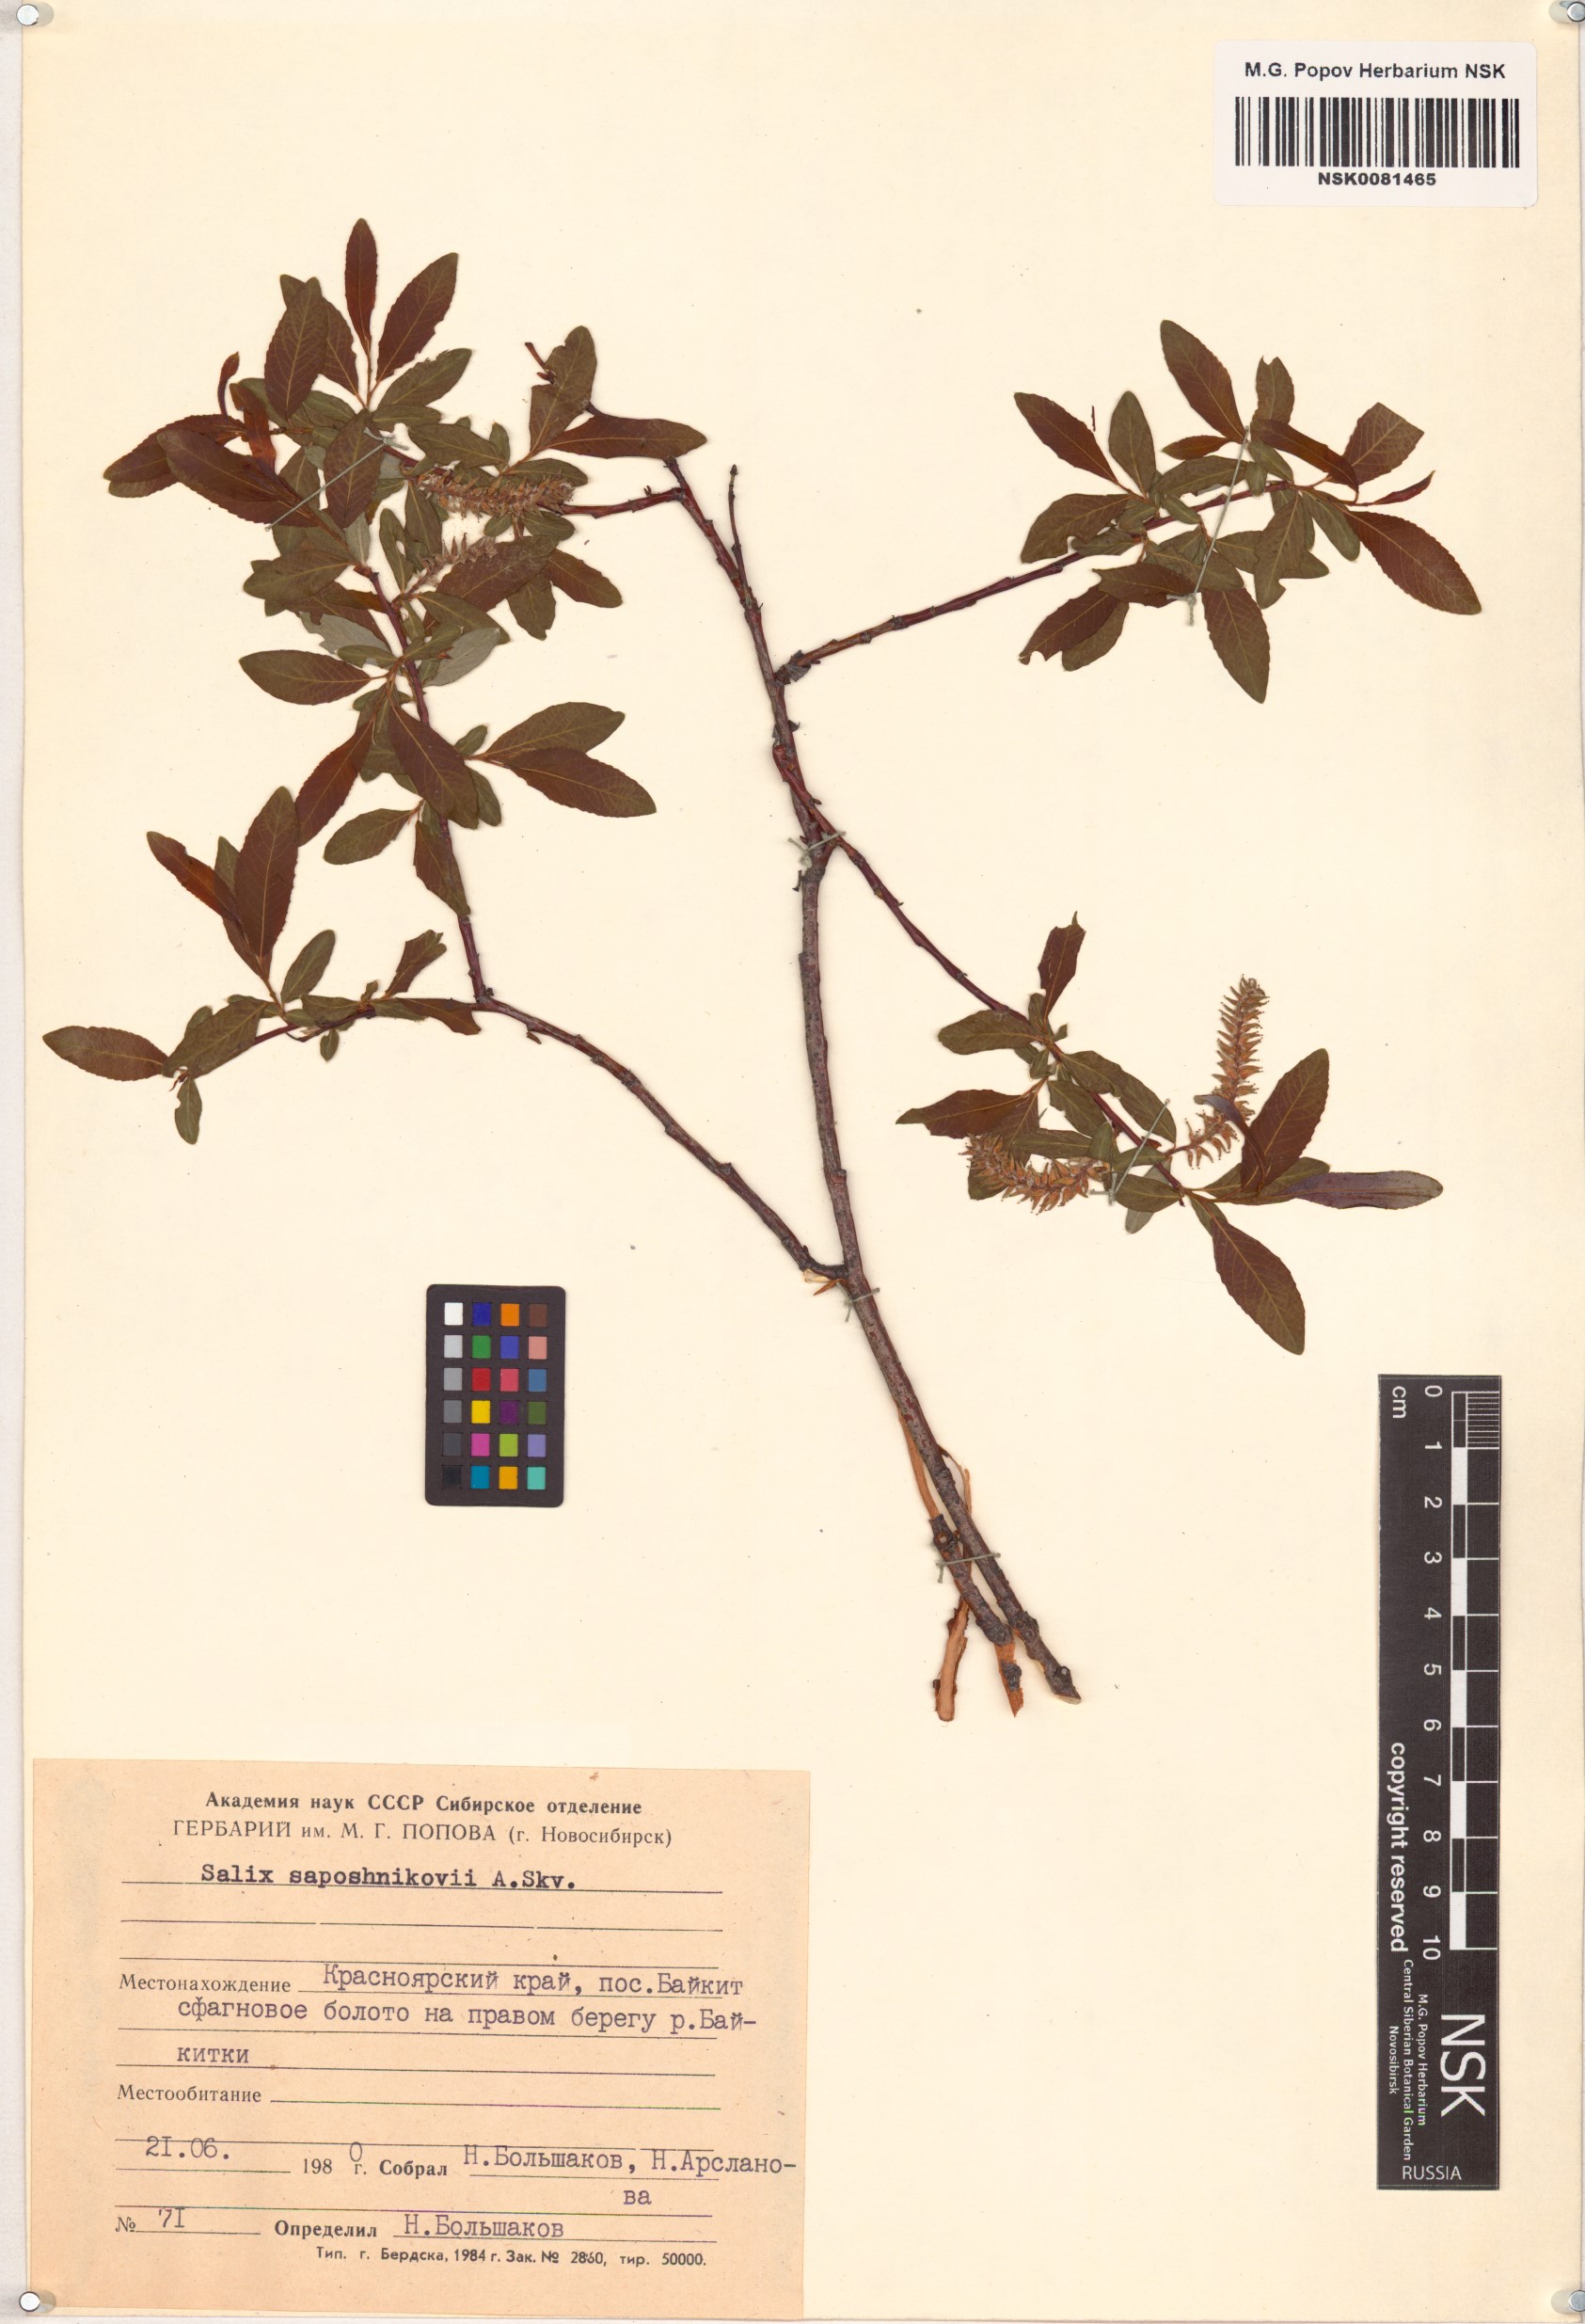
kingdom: Plantae
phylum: Tracheophyta
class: Magnoliopsida
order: Malpighiales
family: Salicaceae
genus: Salix
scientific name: Salix saposhnikovii
